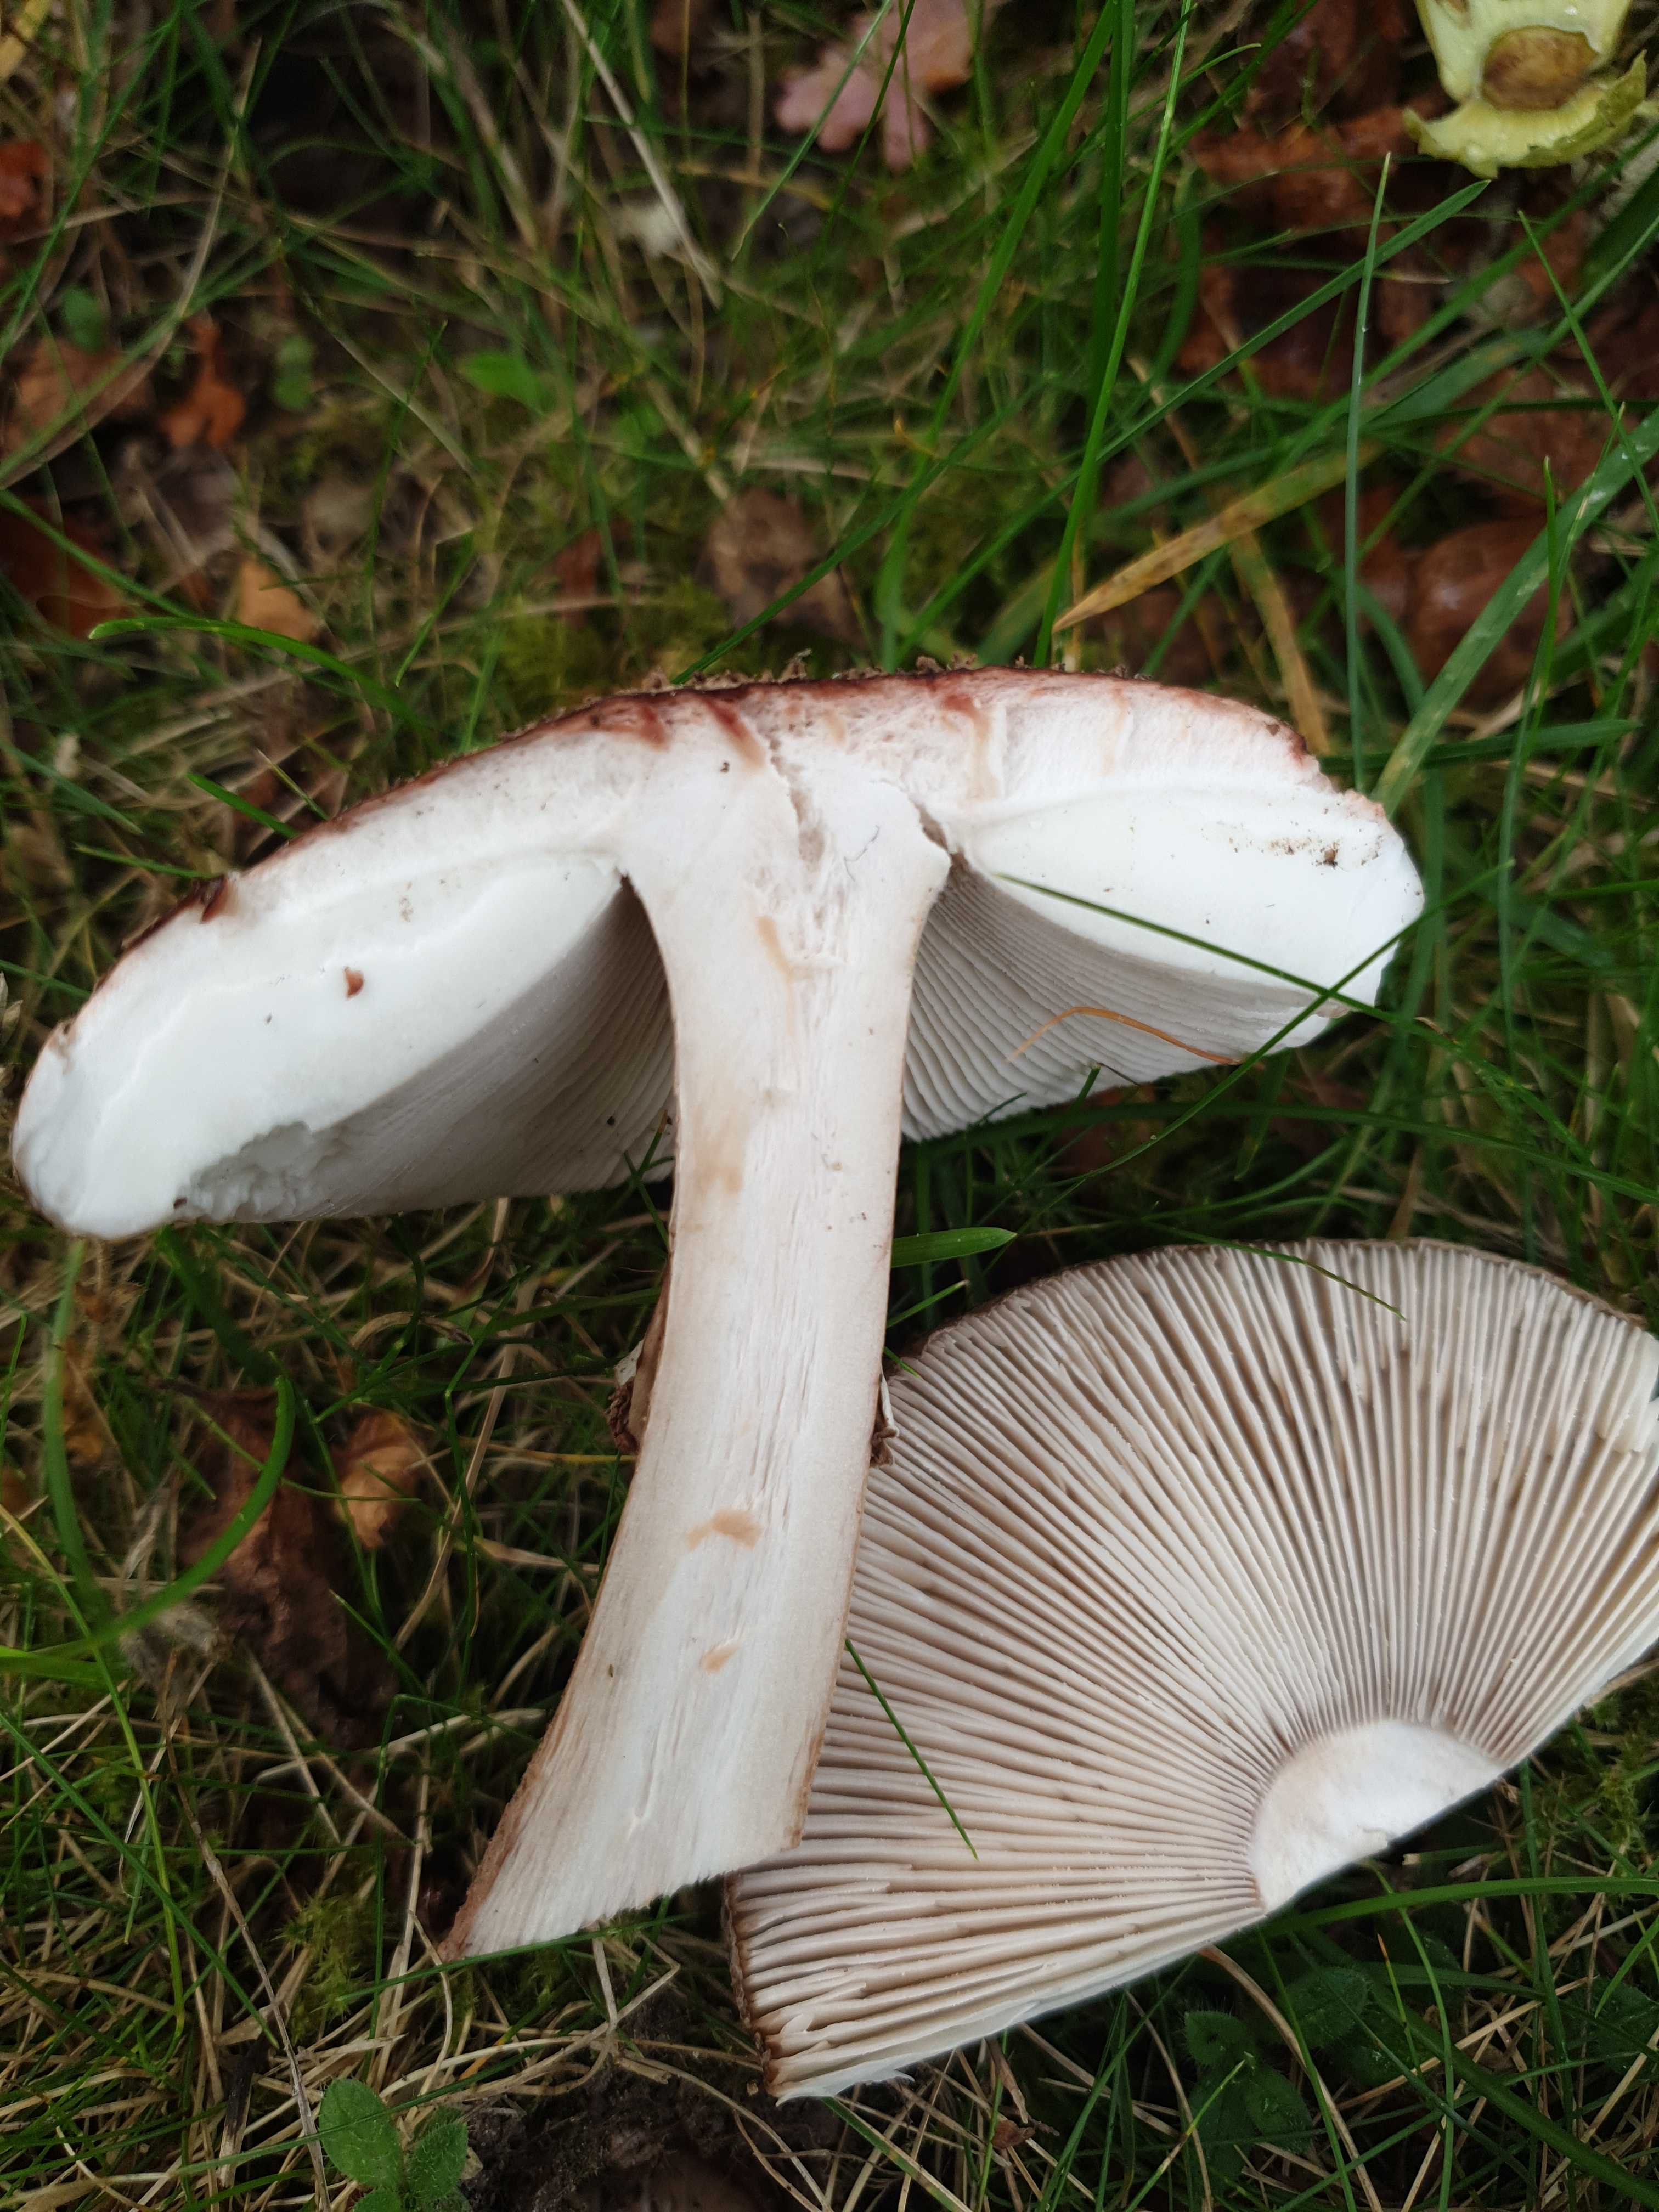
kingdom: Fungi
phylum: Basidiomycota
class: Agaricomycetes
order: Agaricales
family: Amanitaceae
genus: Amanita
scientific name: Amanita rubescens
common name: rødmende fluesvamp
